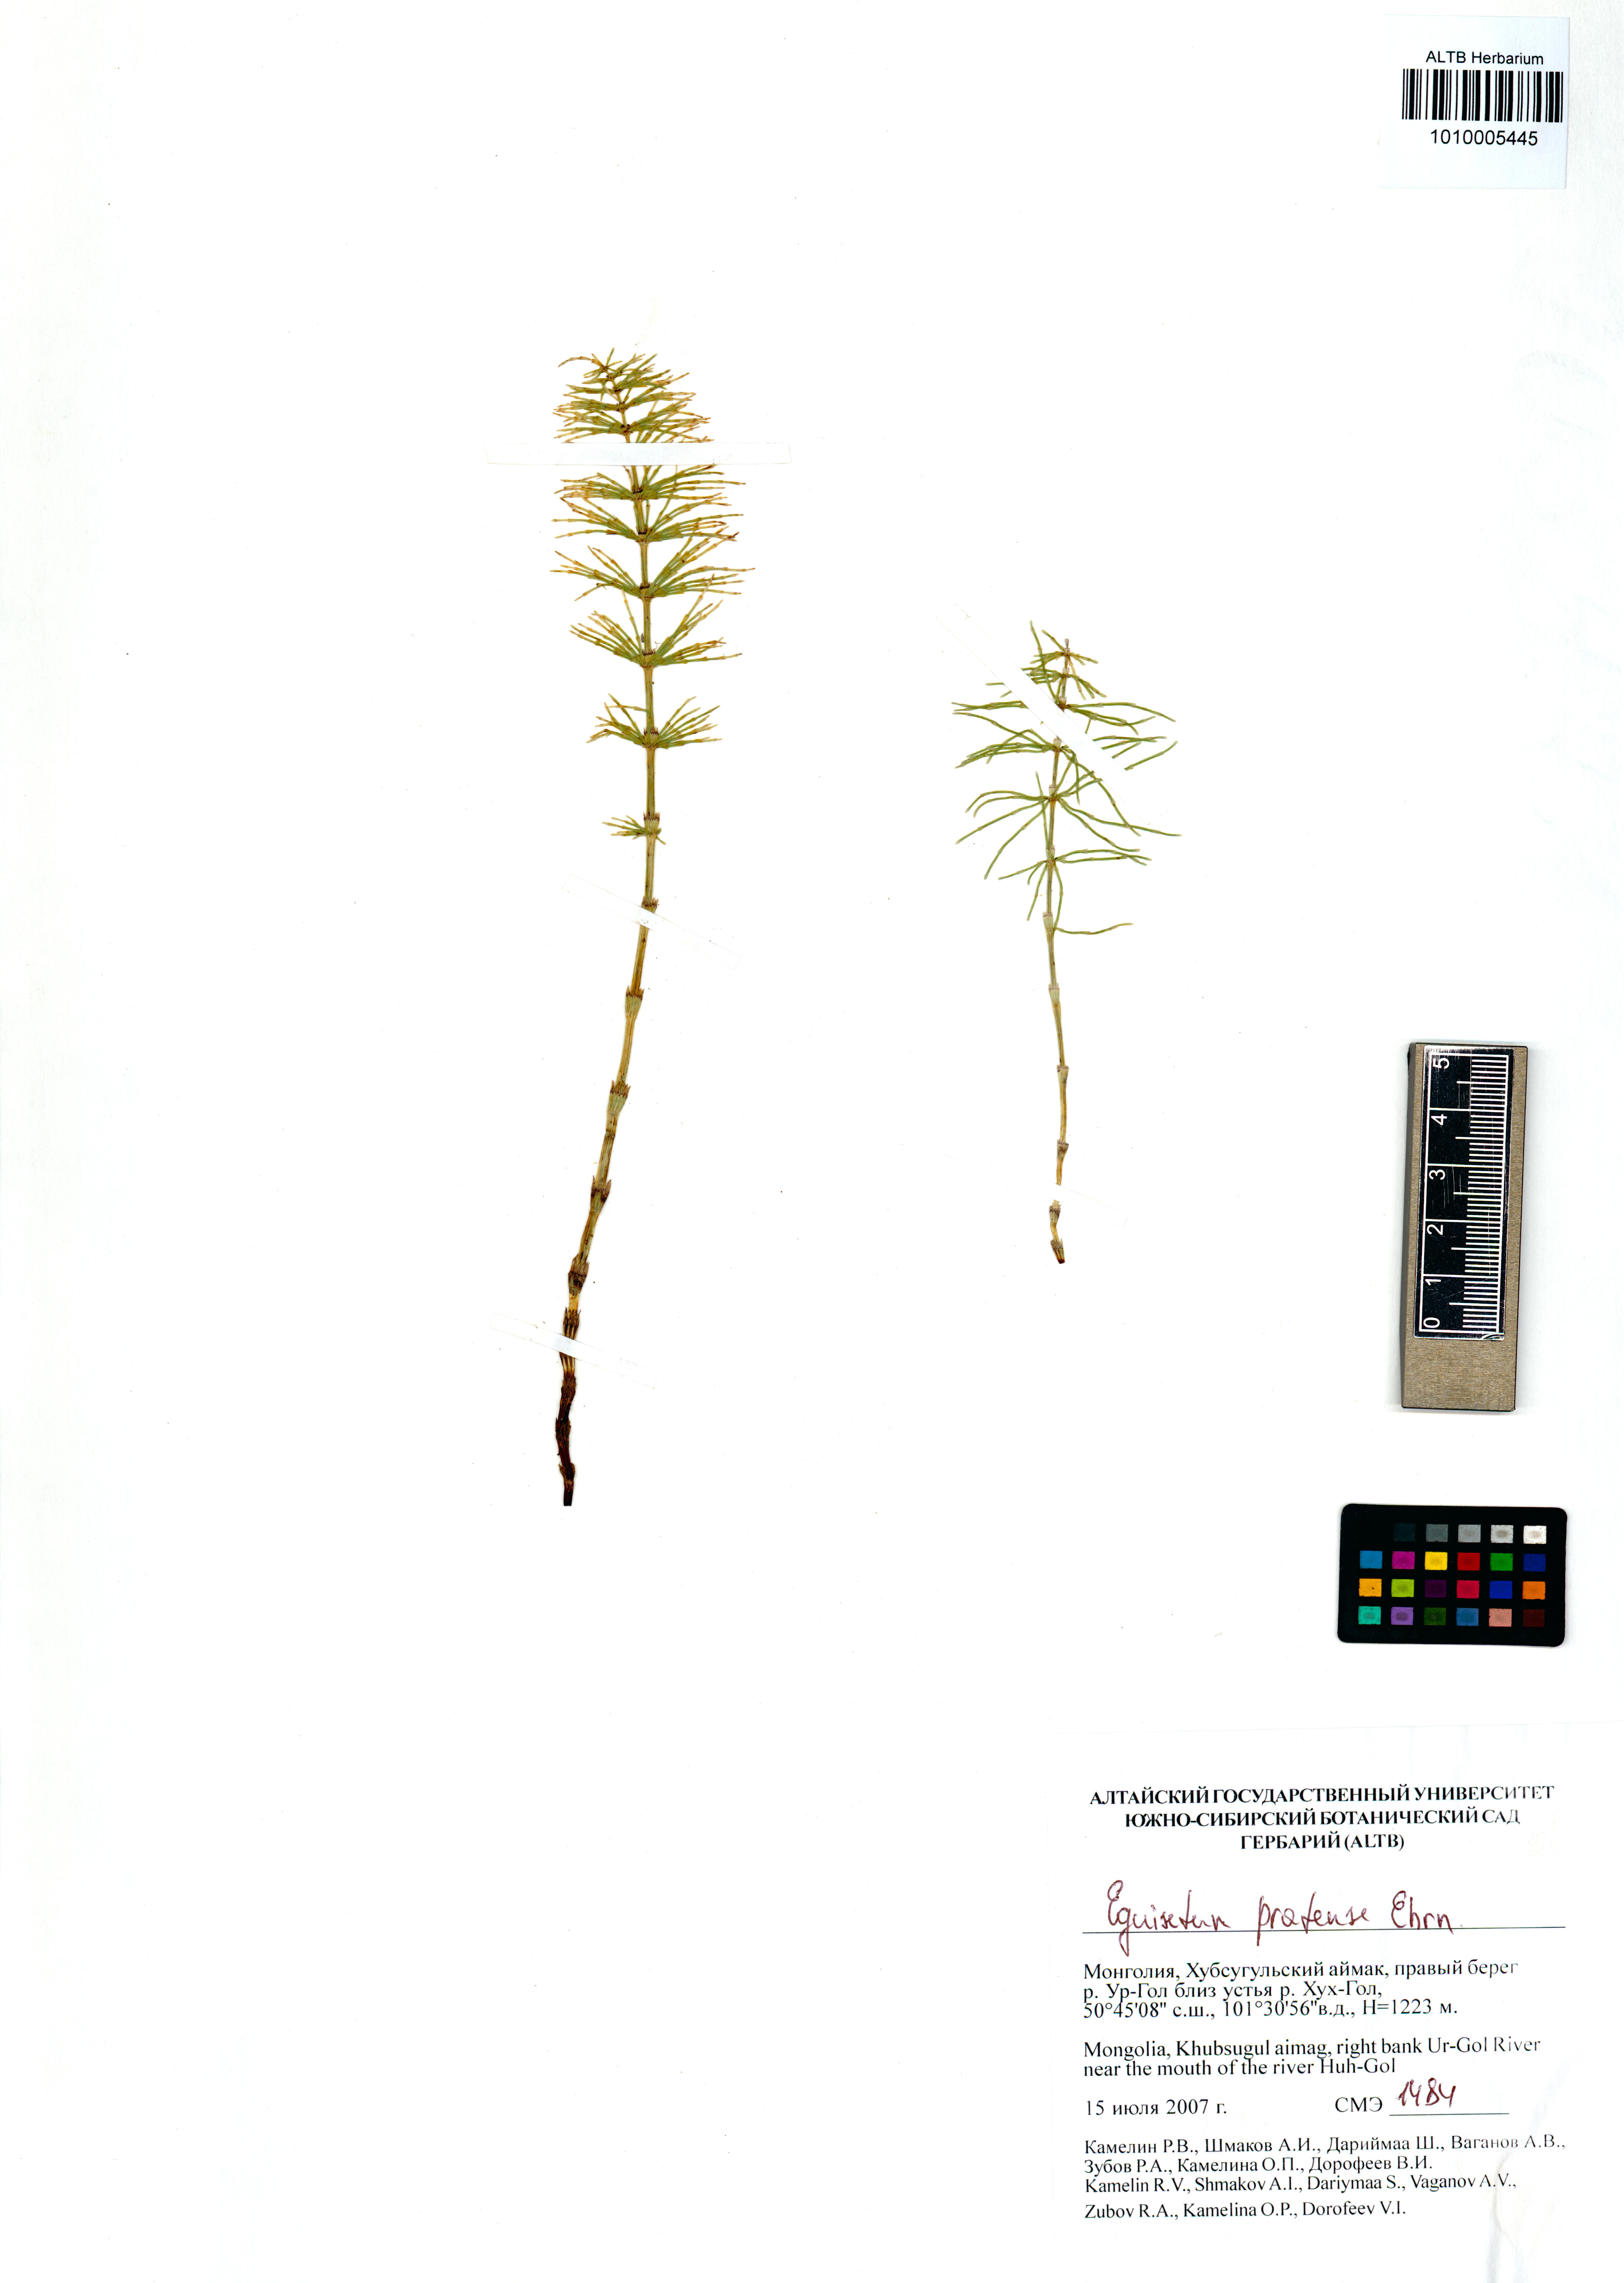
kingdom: Plantae
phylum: Tracheophyta
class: Polypodiopsida
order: Equisetales
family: Equisetaceae
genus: Equisetum
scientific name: Equisetum pratense
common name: Meadow horsetail
